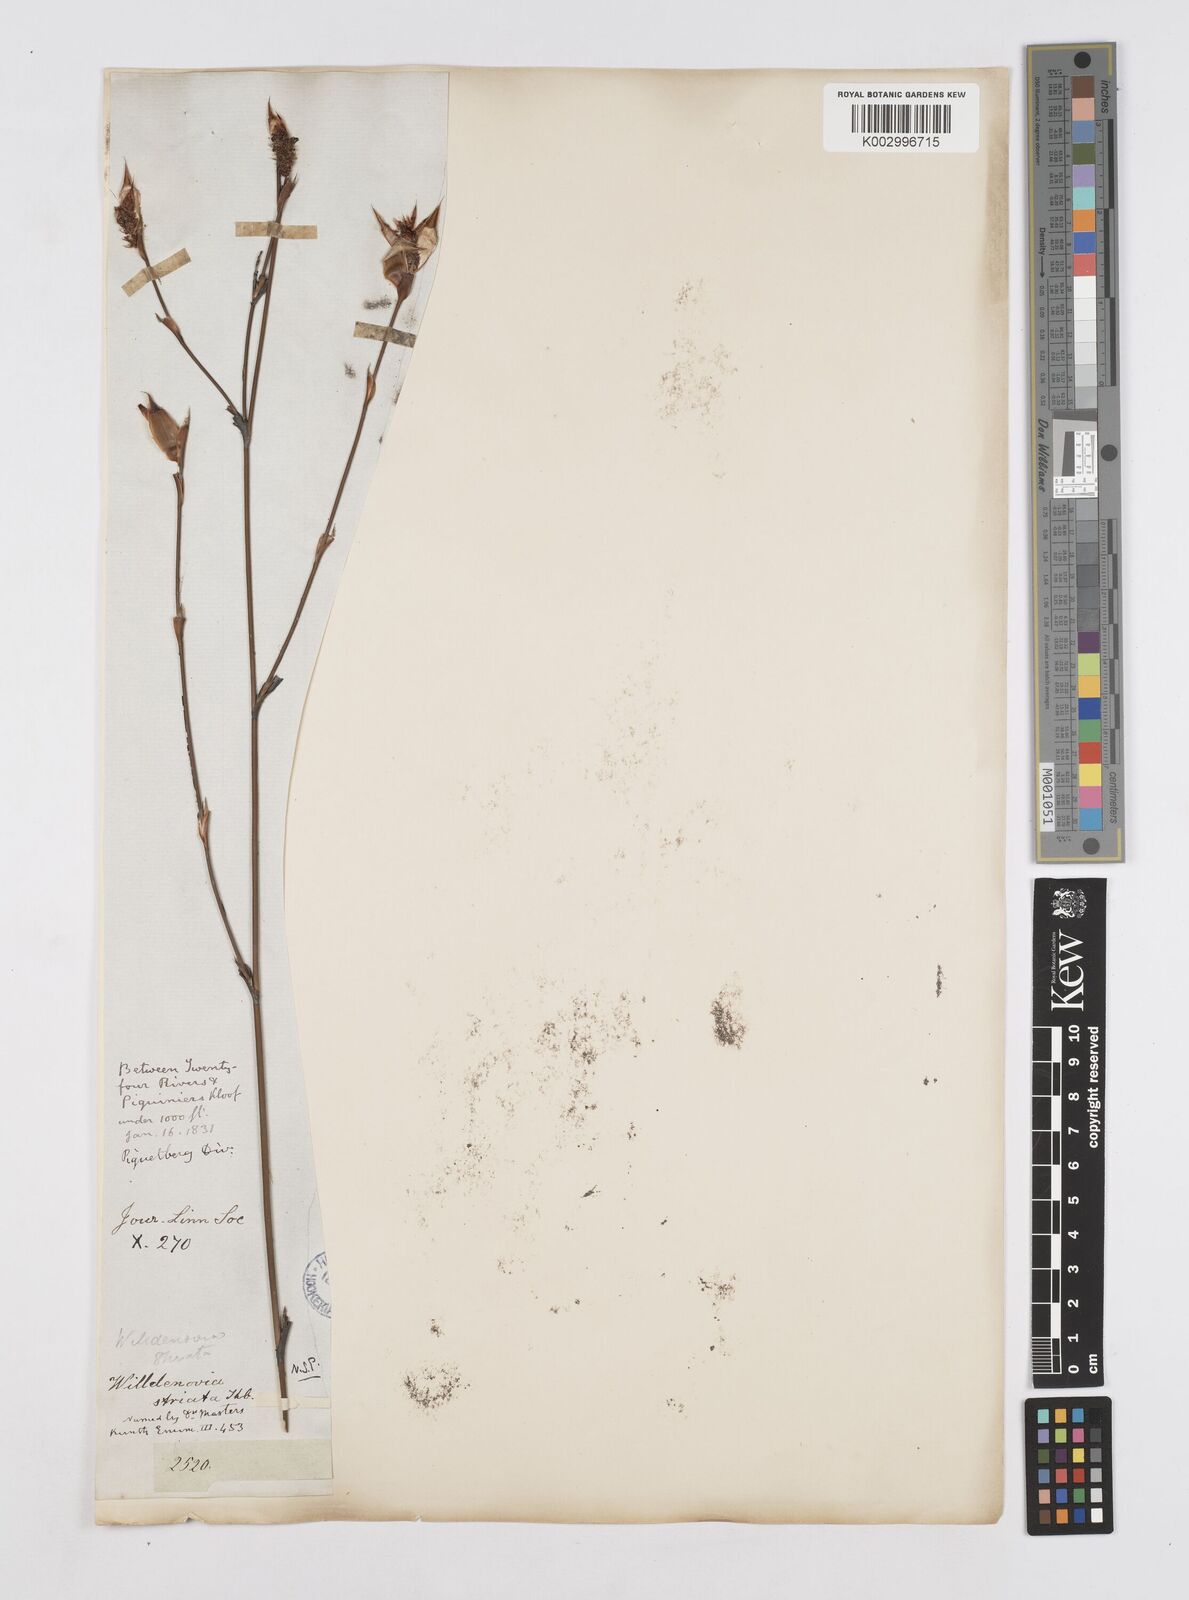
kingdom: Plantae
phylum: Tracheophyta
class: Liliopsida
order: Poales
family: Restionaceae
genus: Willdenowia
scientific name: Willdenowia incurvata
